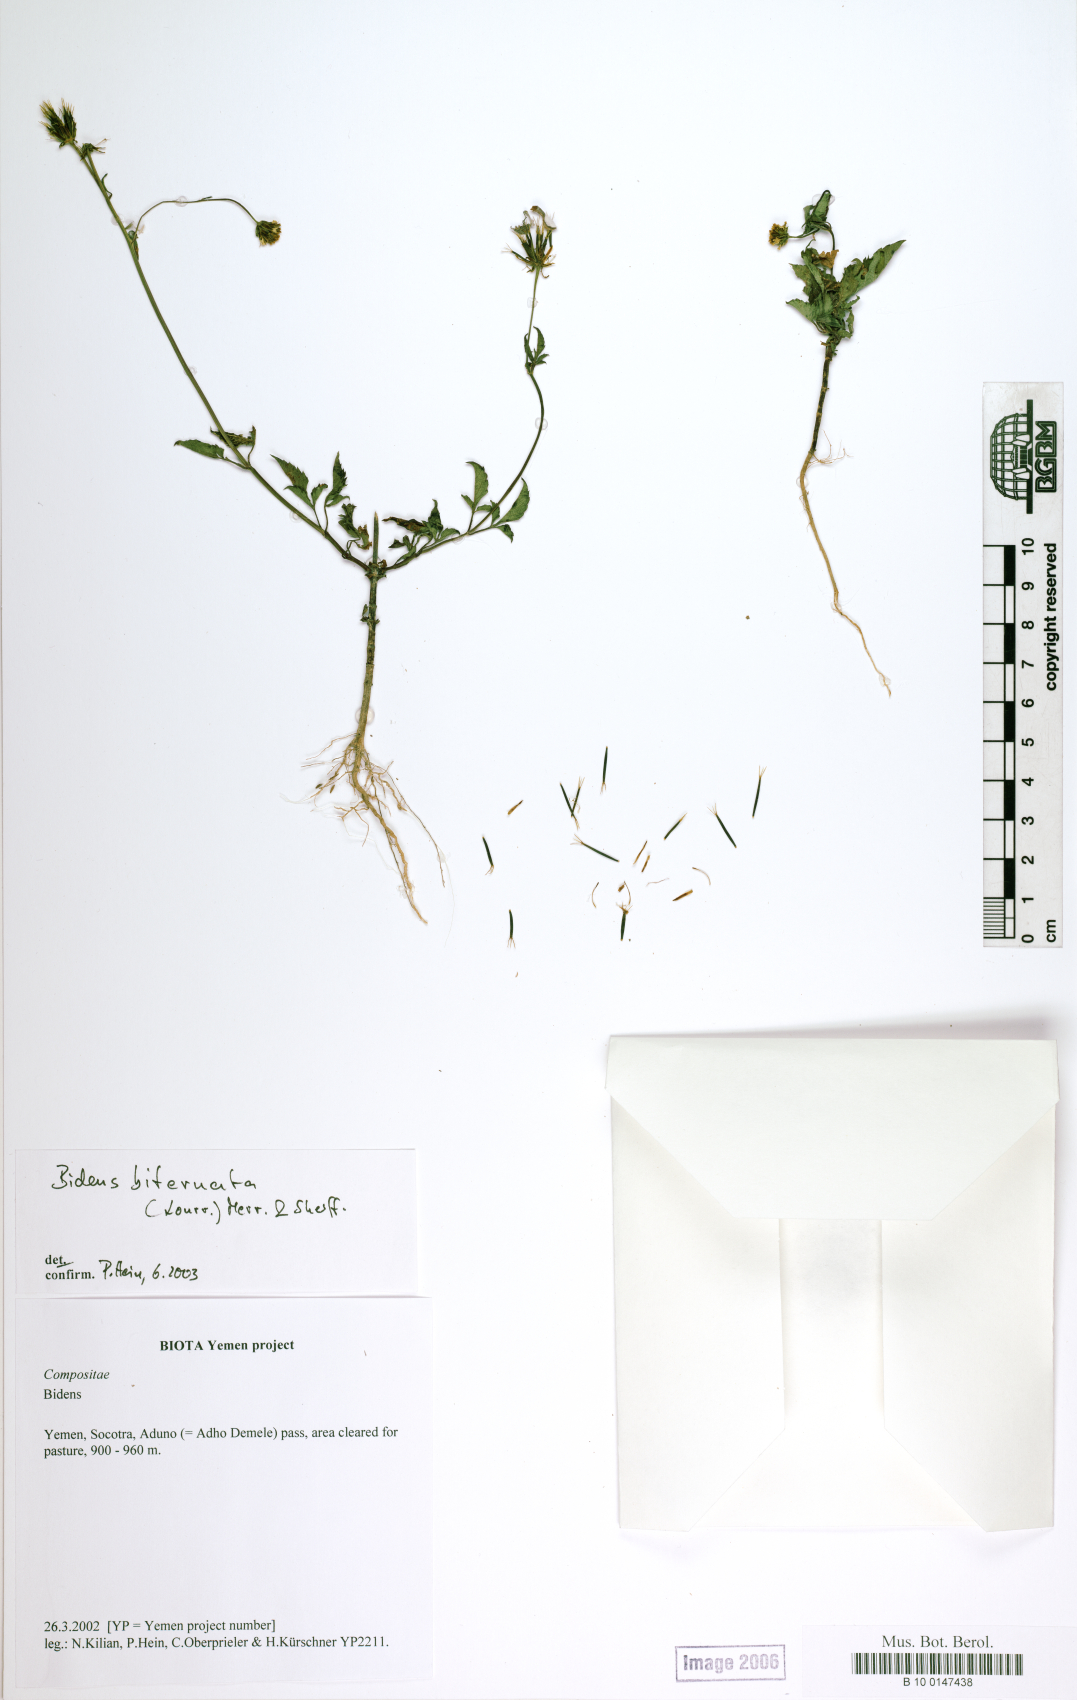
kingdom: Plantae
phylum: Tracheophyta
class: Magnoliopsida
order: Asterales
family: Asteraceae
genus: Bidens
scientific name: Bidens biternata
